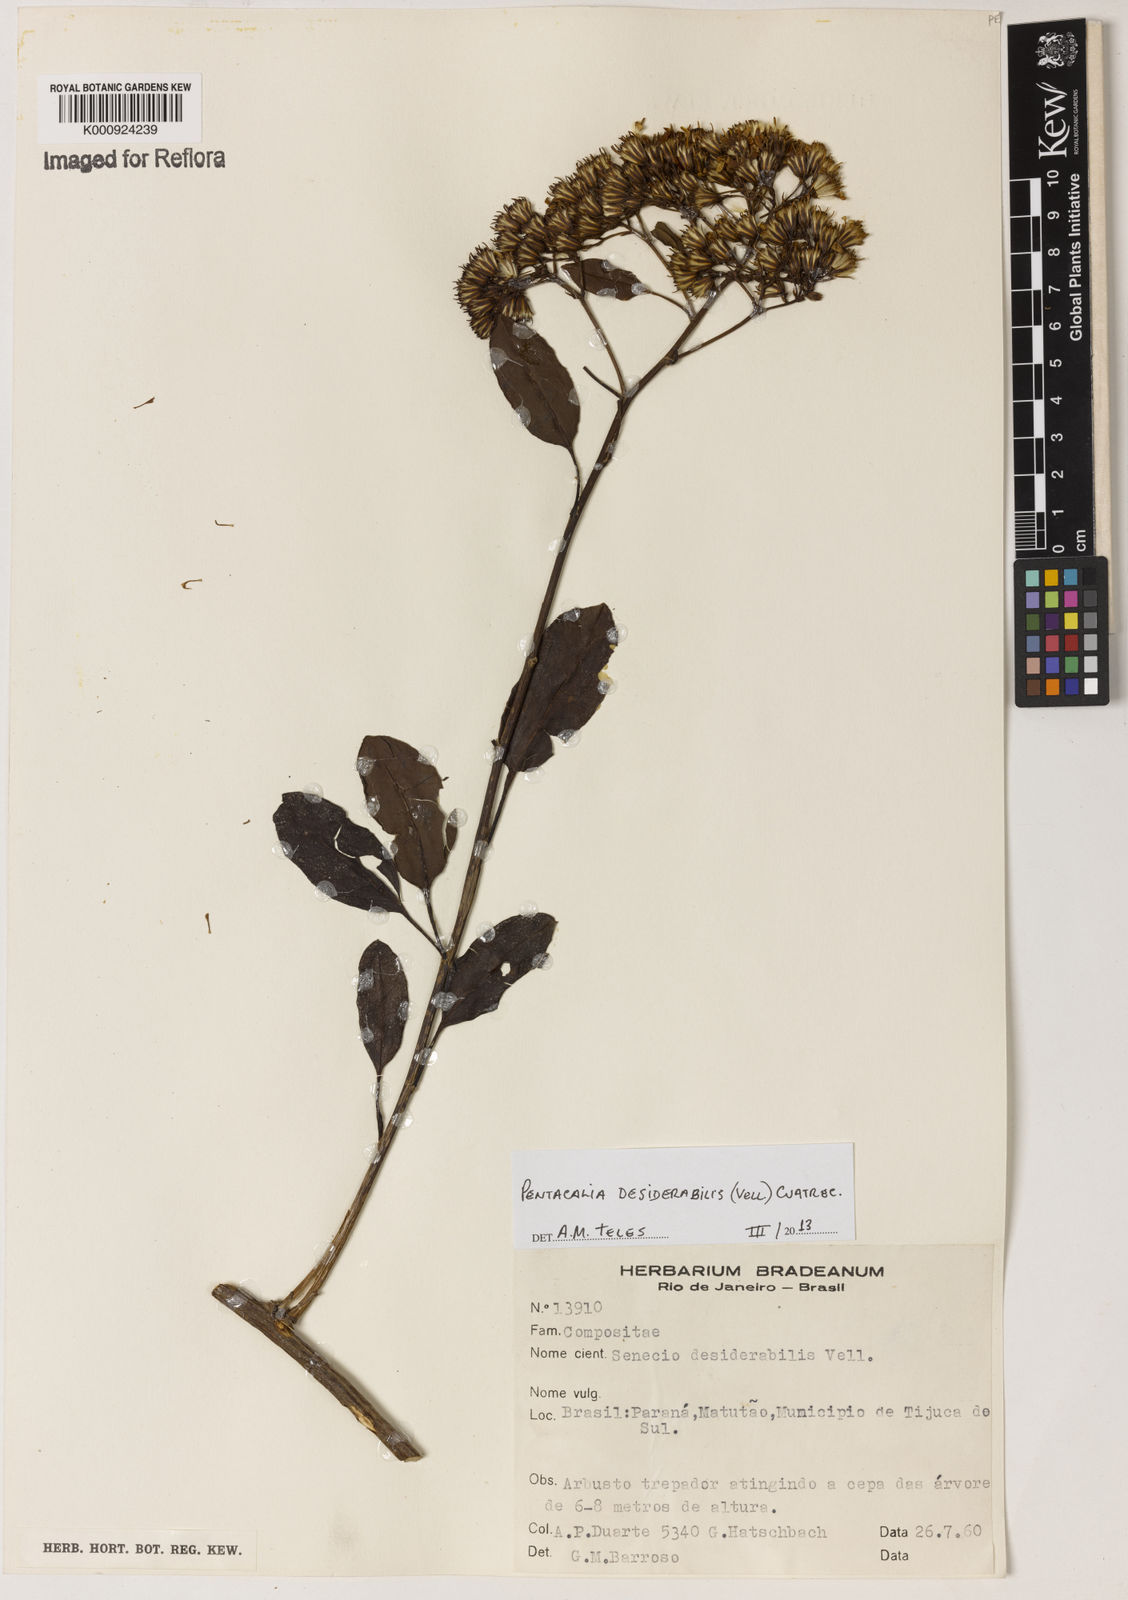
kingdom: Plantae
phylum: Tracheophyta
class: Magnoliopsida
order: Asterales
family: Asteraceae
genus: Pentacalia
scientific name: Pentacalia desiderabilis
